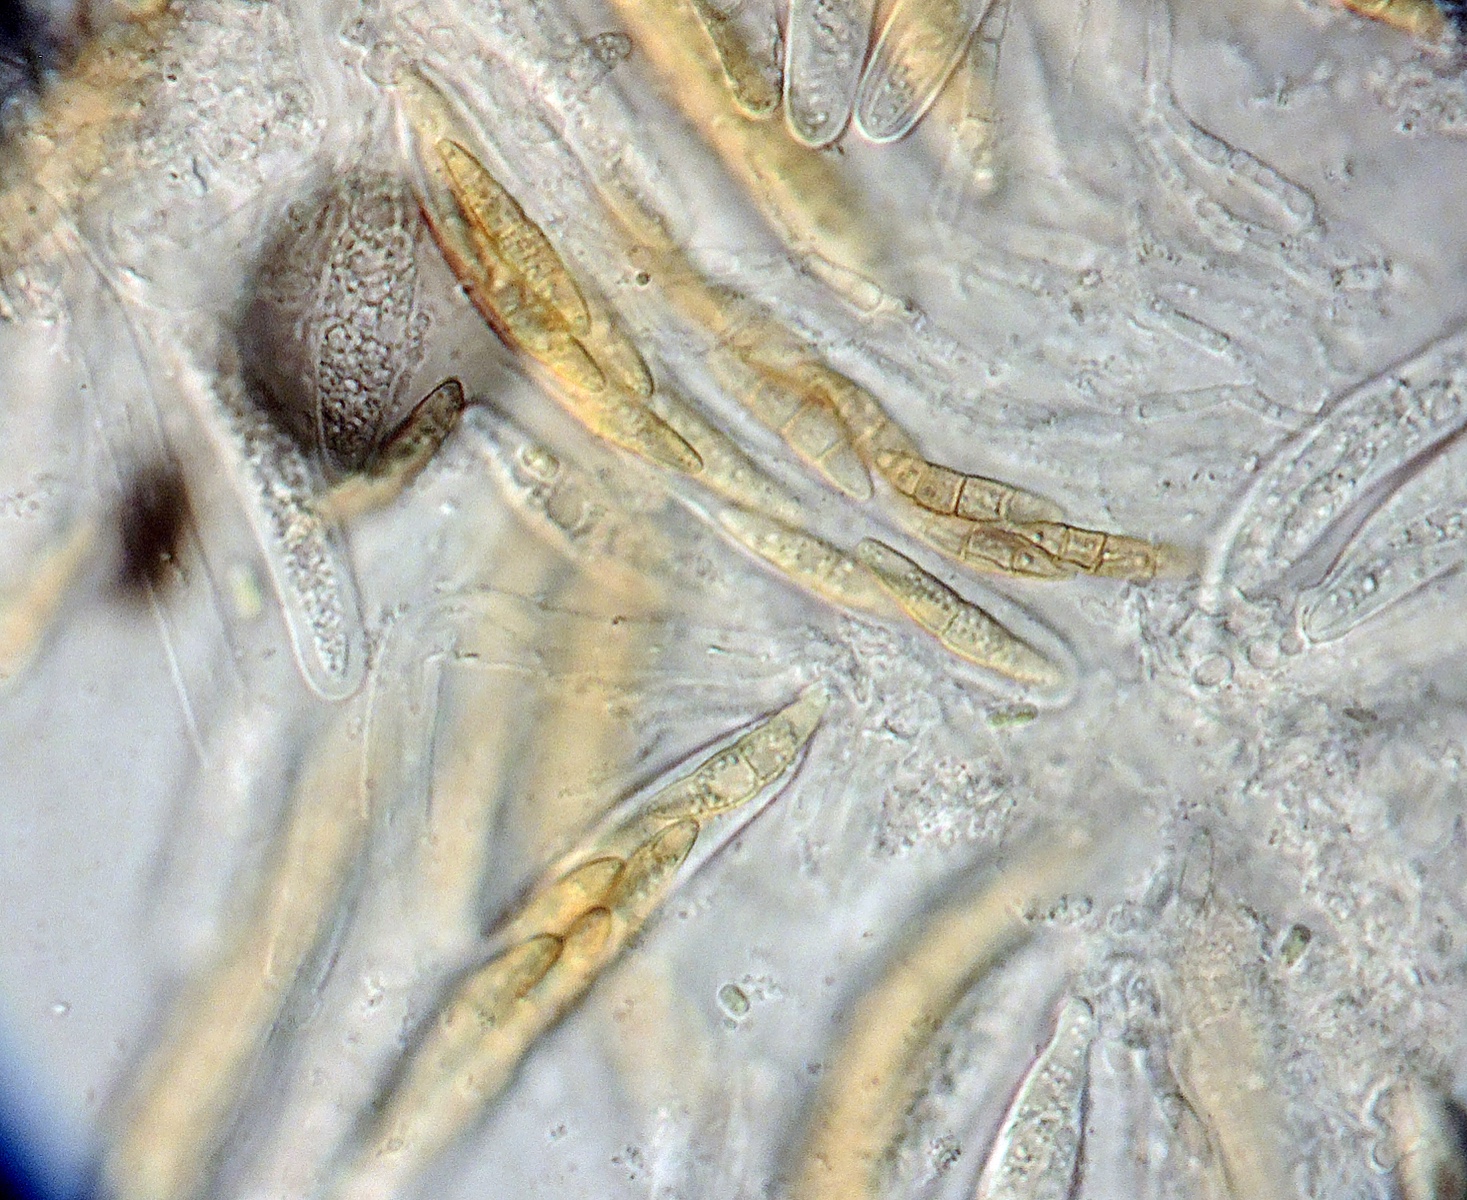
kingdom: Fungi
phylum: Ascomycota
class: Dothideomycetes
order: Pleosporales
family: Phaeosphaeriaceae
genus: Phaeosphaeria
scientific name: Phaeosphaeria
